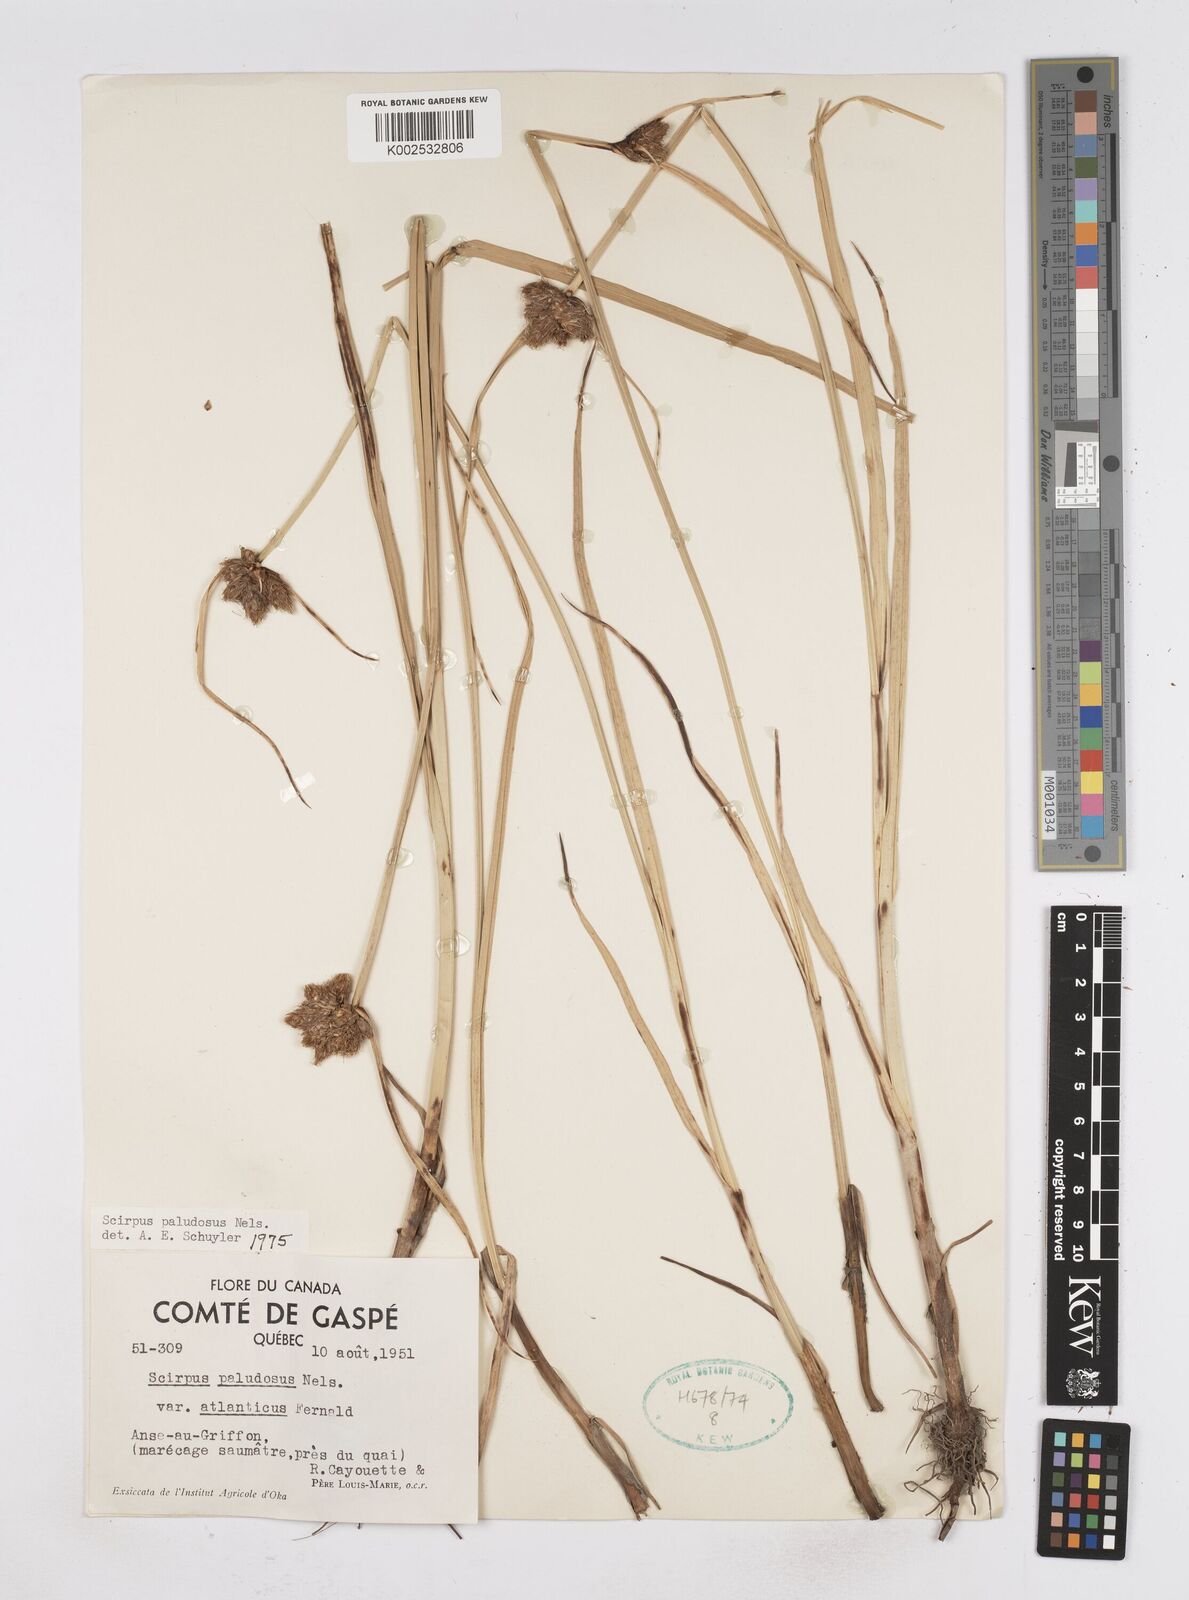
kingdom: Plantae
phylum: Tracheophyta
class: Liliopsida
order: Poales
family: Cyperaceae
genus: Bolboschoenus
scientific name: Bolboschoenus maritimus
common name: Sea club-rush
